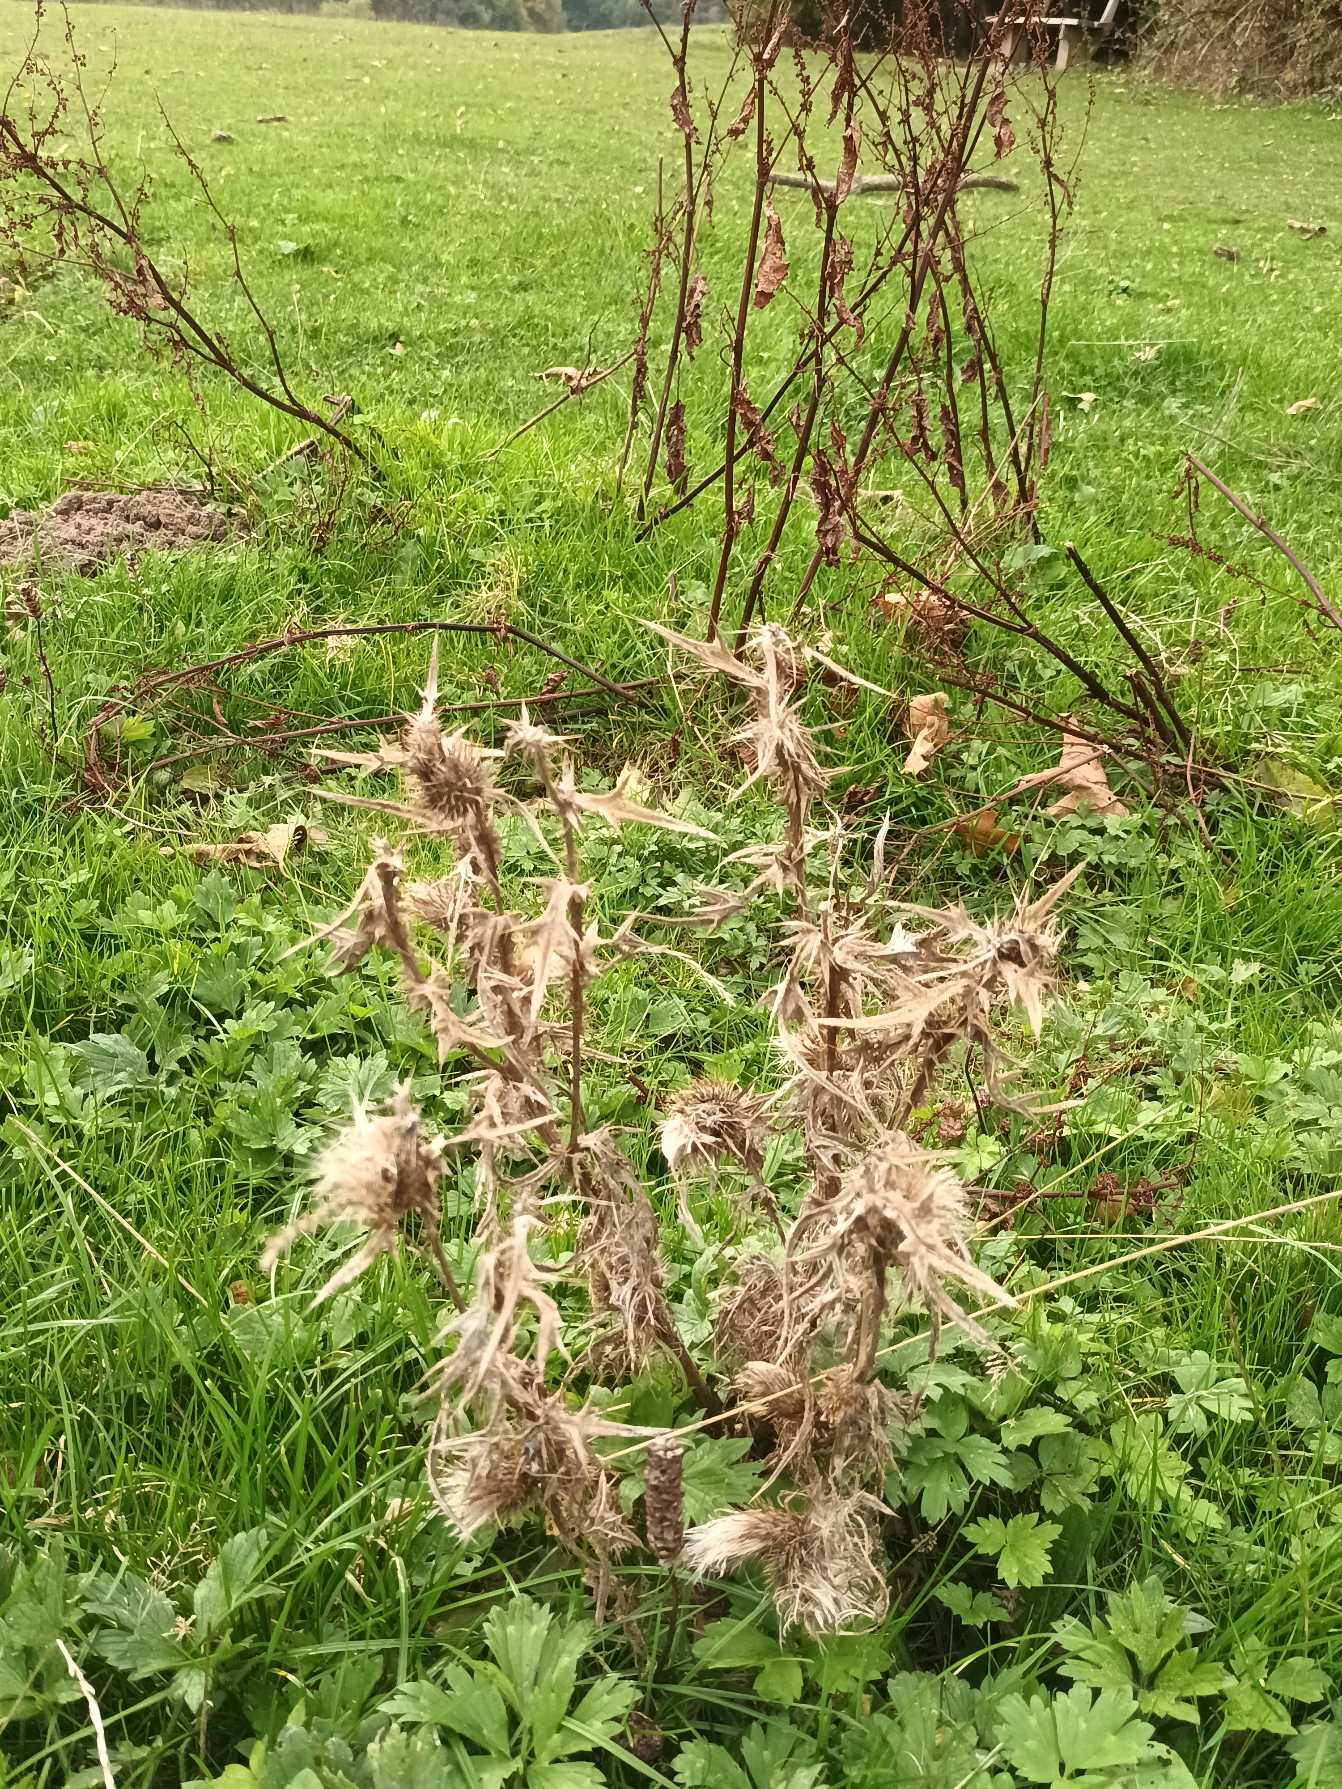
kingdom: Plantae
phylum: Tracheophyta
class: Magnoliopsida
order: Asterales
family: Asteraceae
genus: Cirsium
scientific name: Cirsium vulgare
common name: Horse-tidsel
